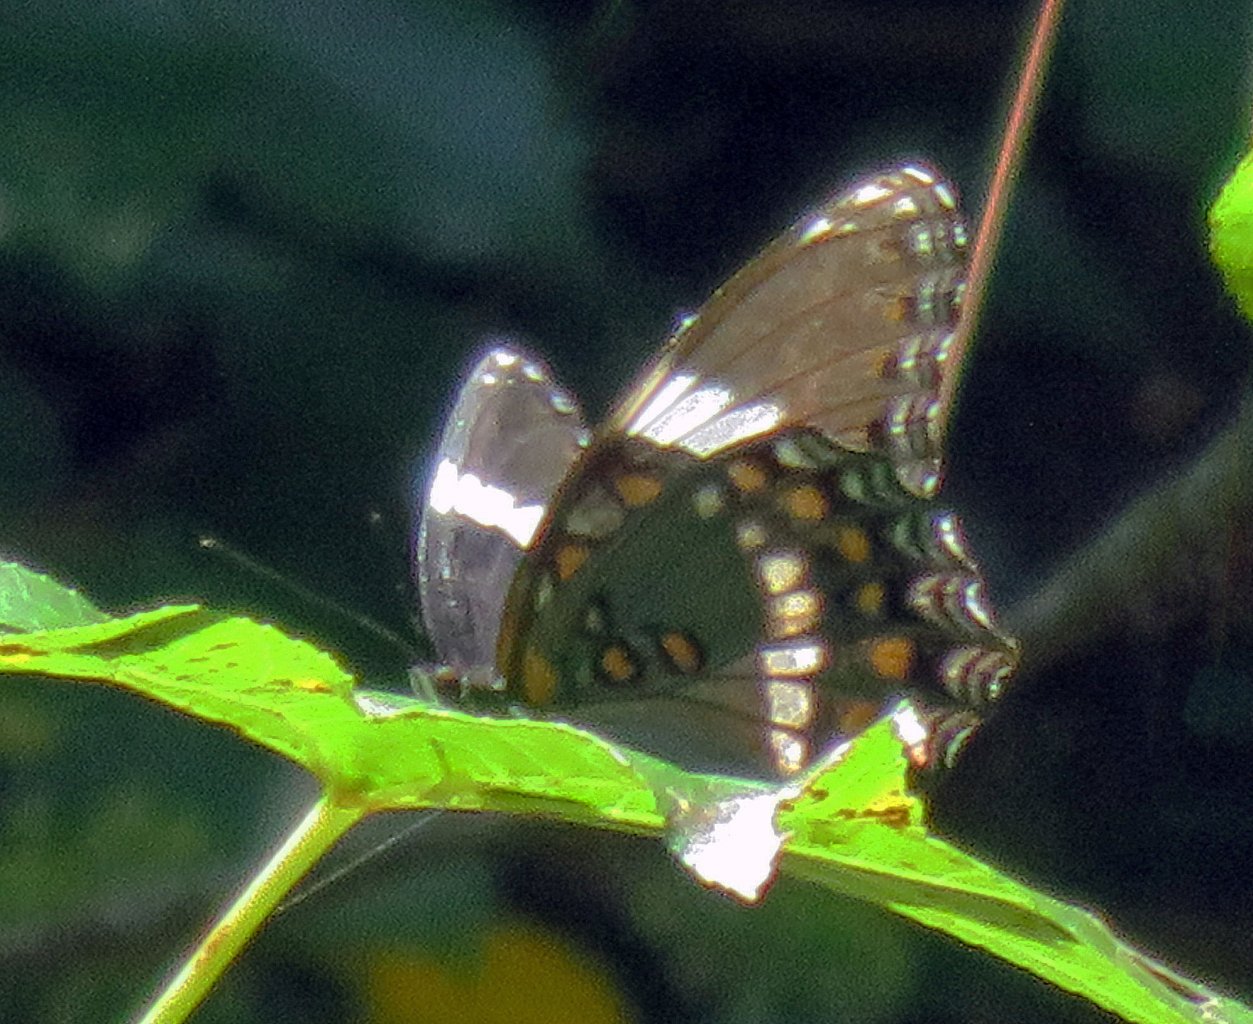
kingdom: Animalia
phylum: Arthropoda
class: Insecta
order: Lepidoptera
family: Nymphalidae
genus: Limenitis
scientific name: Limenitis arthemis
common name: Red-spotted Admiral
